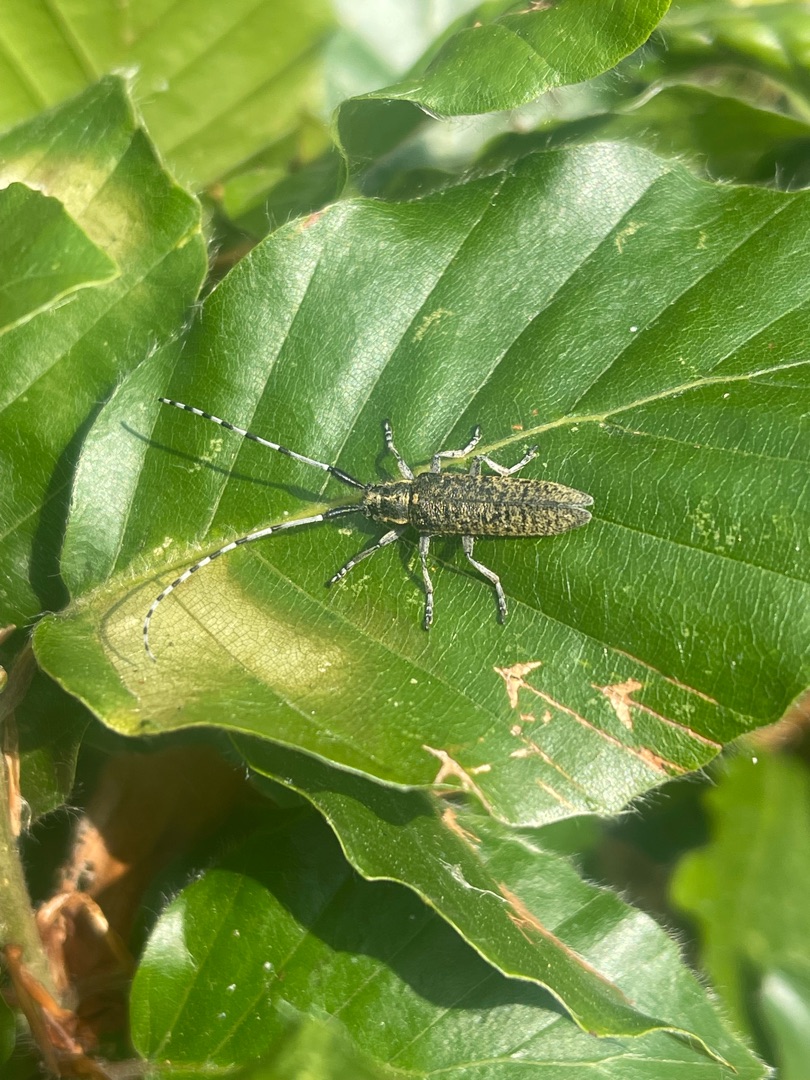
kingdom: Animalia
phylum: Arthropoda
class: Insecta
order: Coleoptera
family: Cerambycidae
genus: Agapanthia
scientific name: Agapanthia villosoviridescens
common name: Tidselbuk
